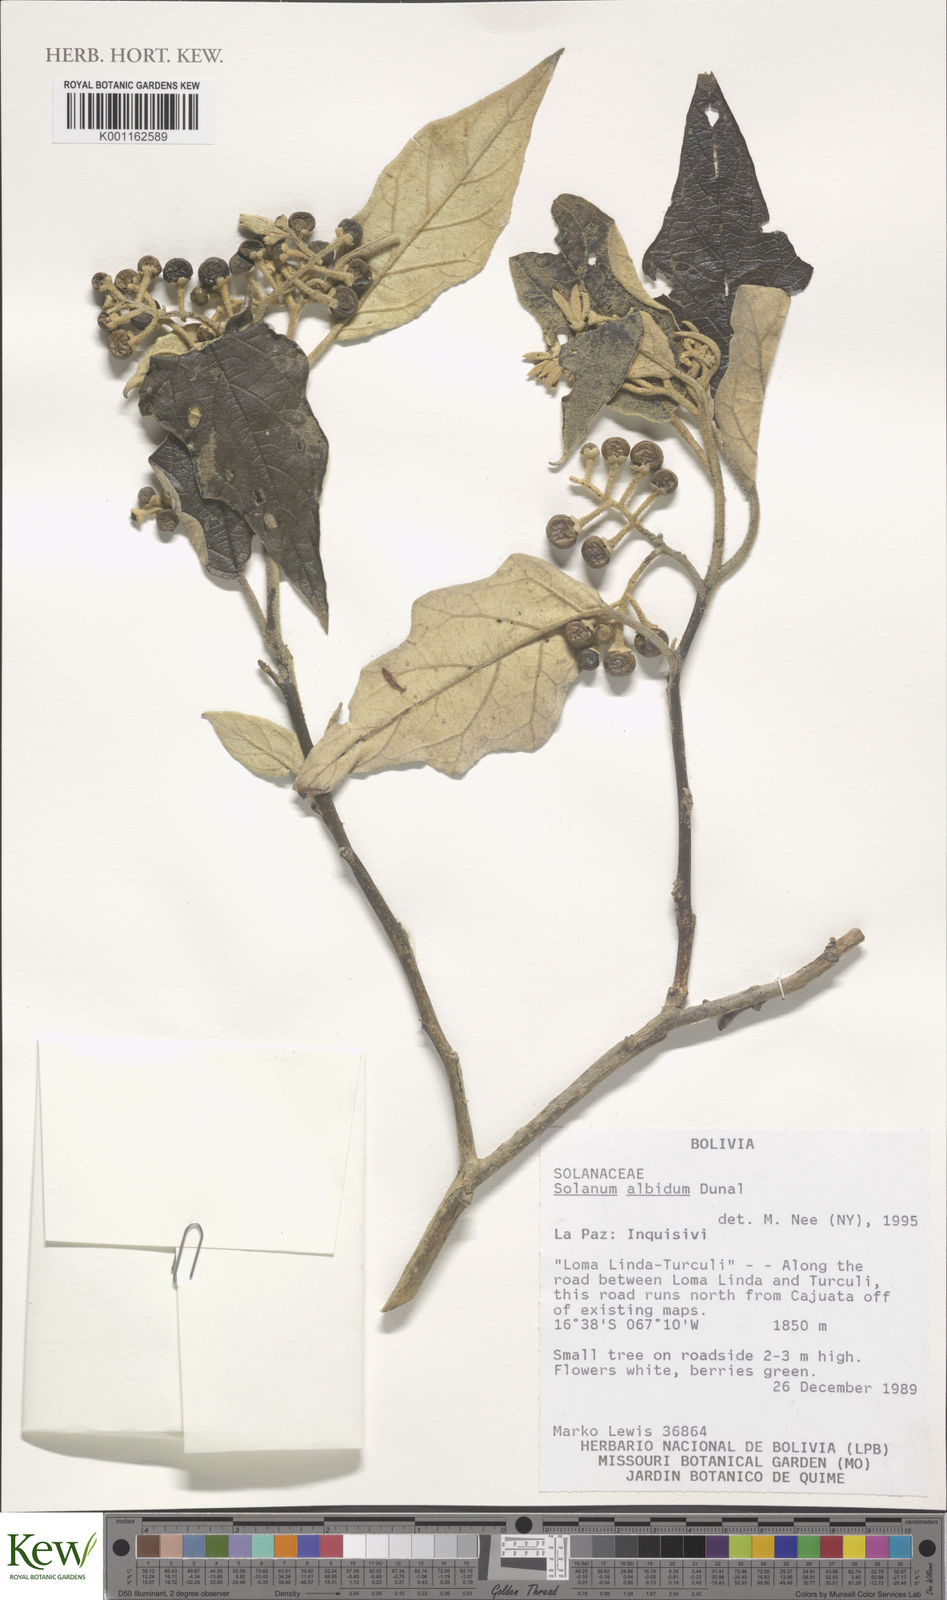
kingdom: Plantae
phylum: Tracheophyta
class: Magnoliopsida
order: Solanales
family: Solanaceae
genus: Solanum
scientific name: Solanum albidum
